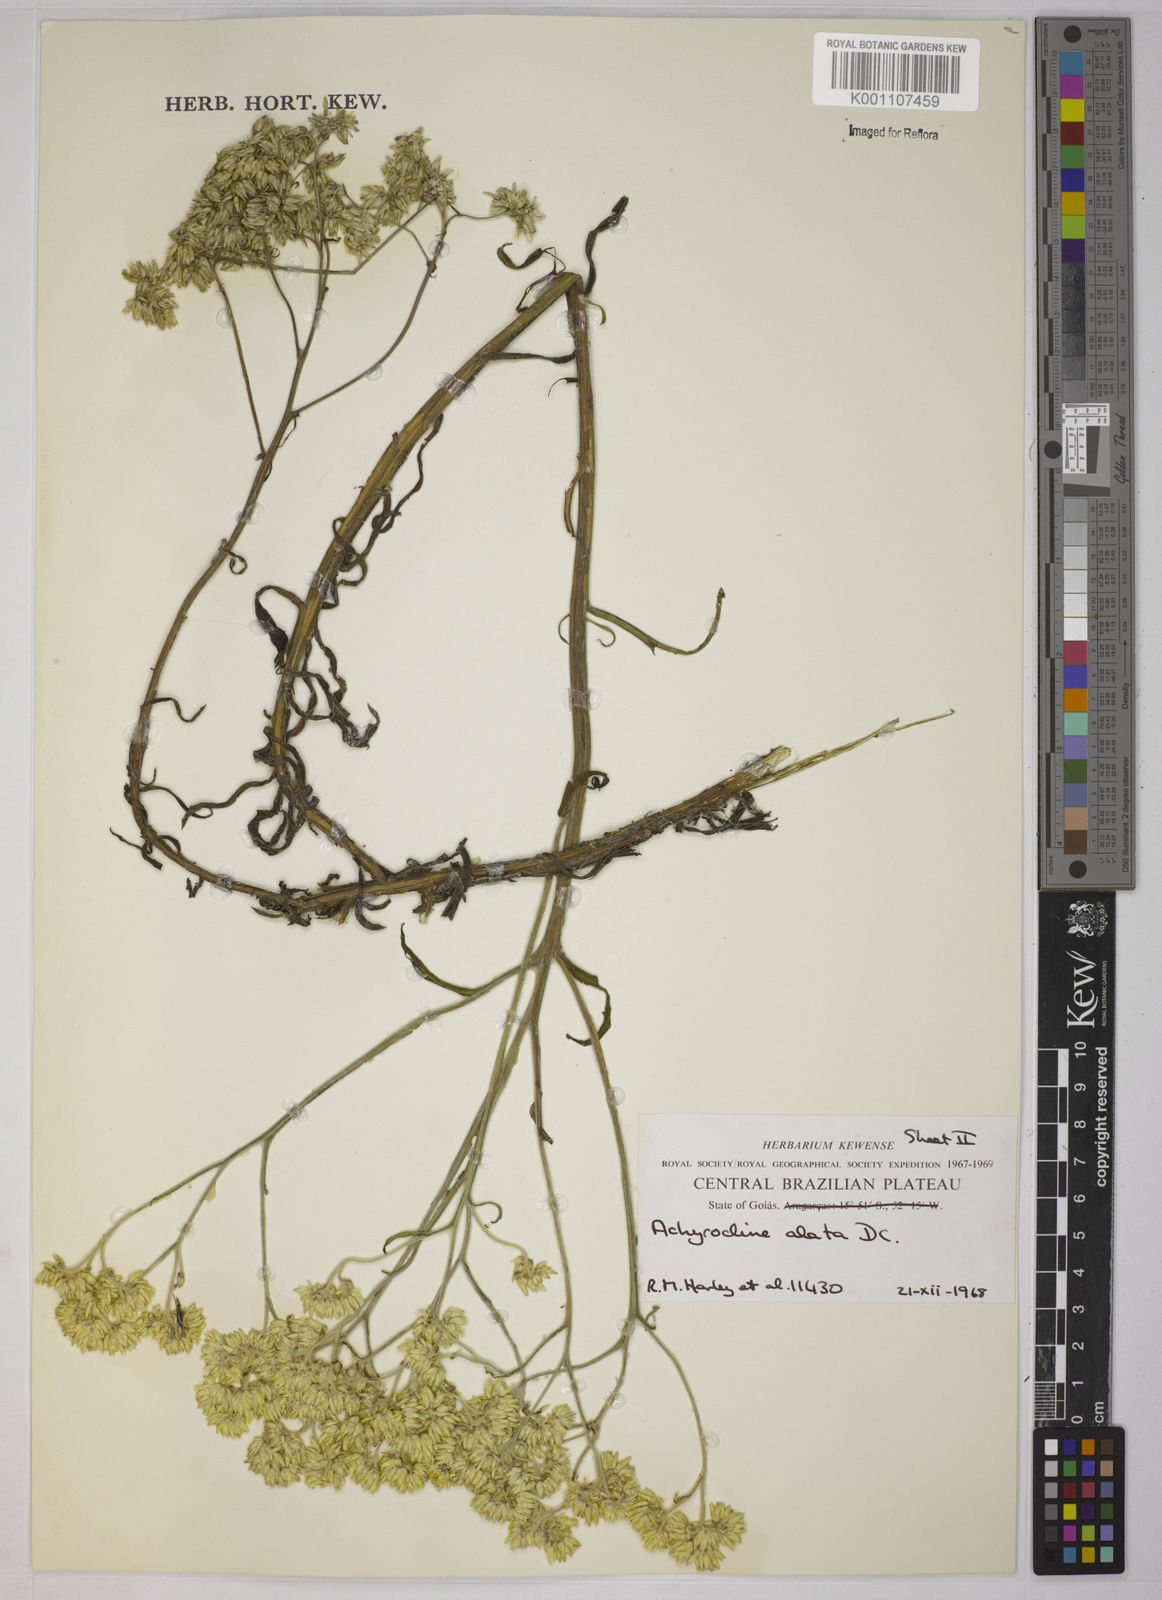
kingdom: Plantae
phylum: Tracheophyta
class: Magnoliopsida
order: Asterales
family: Asteraceae
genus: Achyrocline
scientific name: Achyrocline alata
